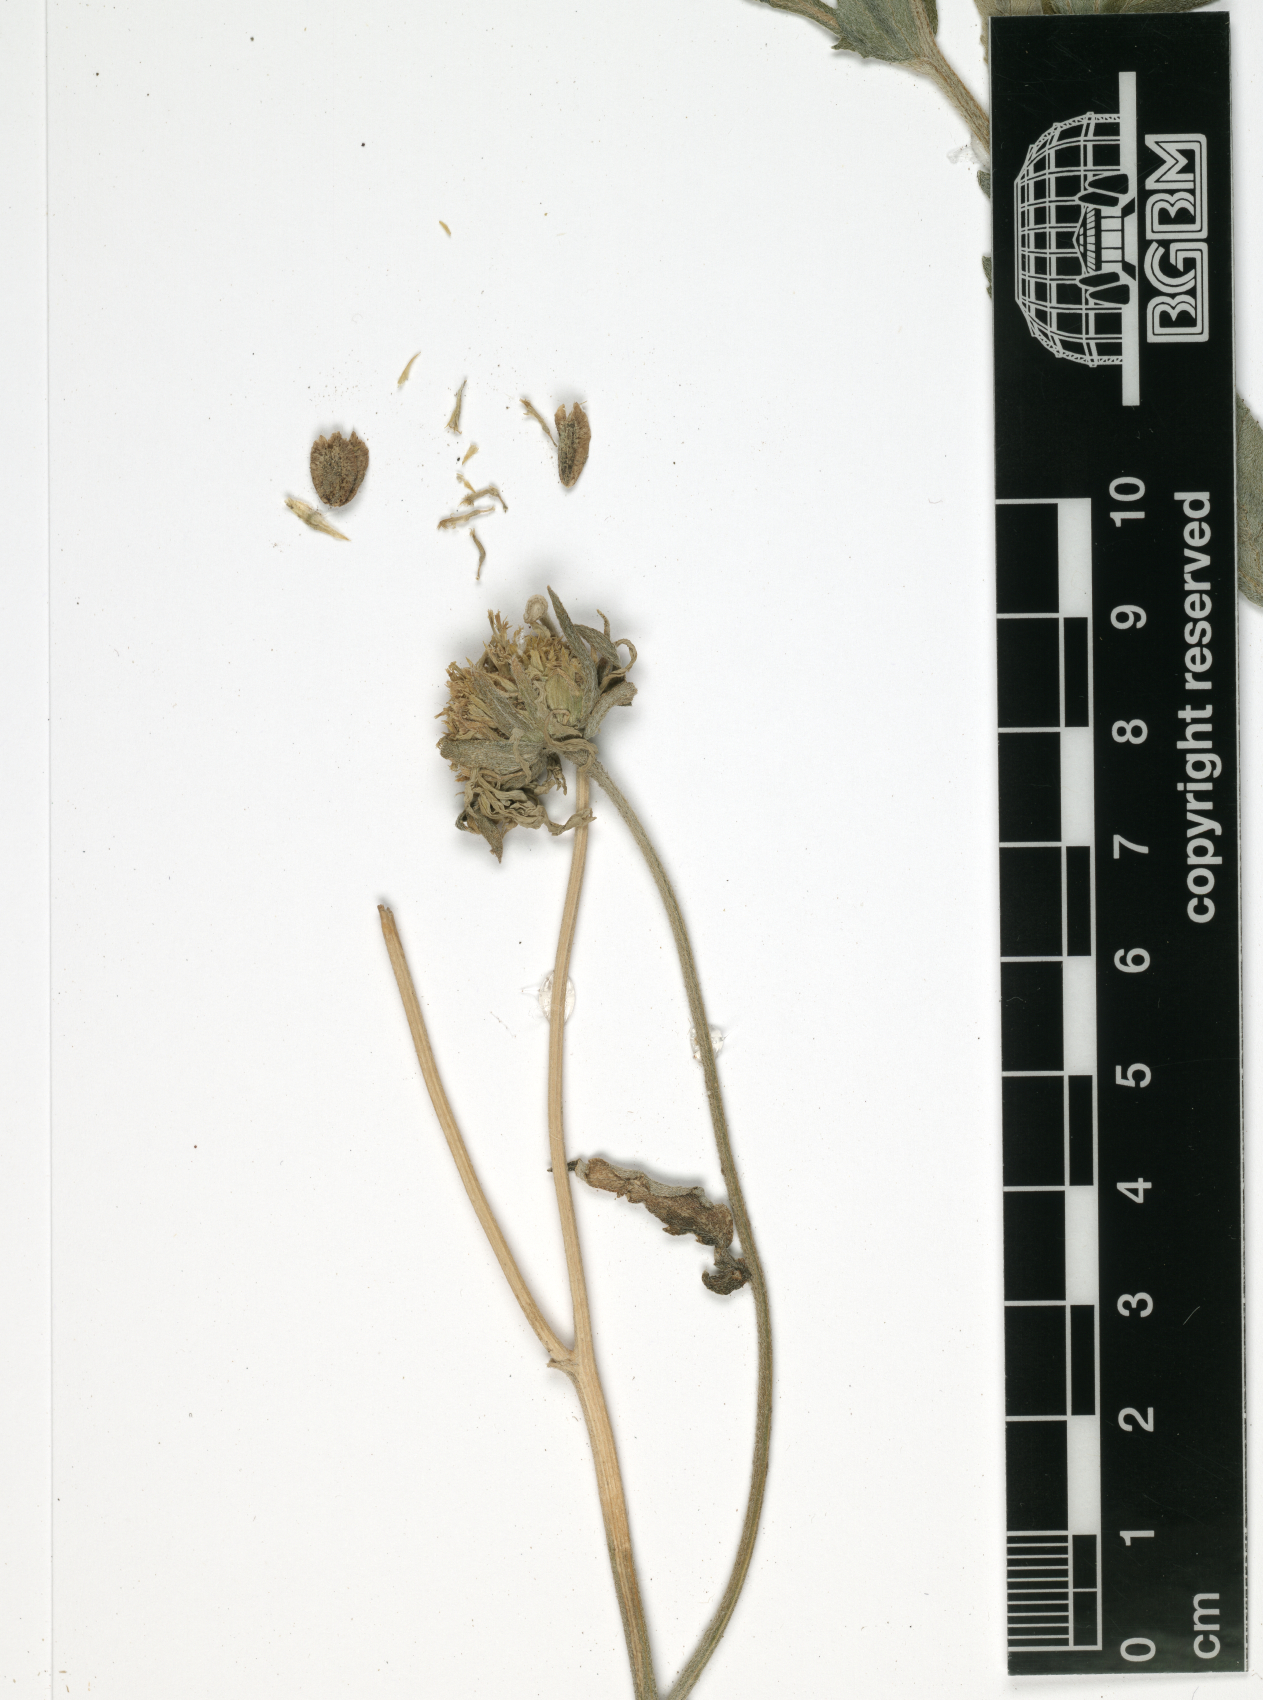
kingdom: Plantae
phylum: Tracheophyta
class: Magnoliopsida
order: Asterales
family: Asteraceae
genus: Verbesina
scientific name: Verbesina encelioides
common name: Golden crownbeard
